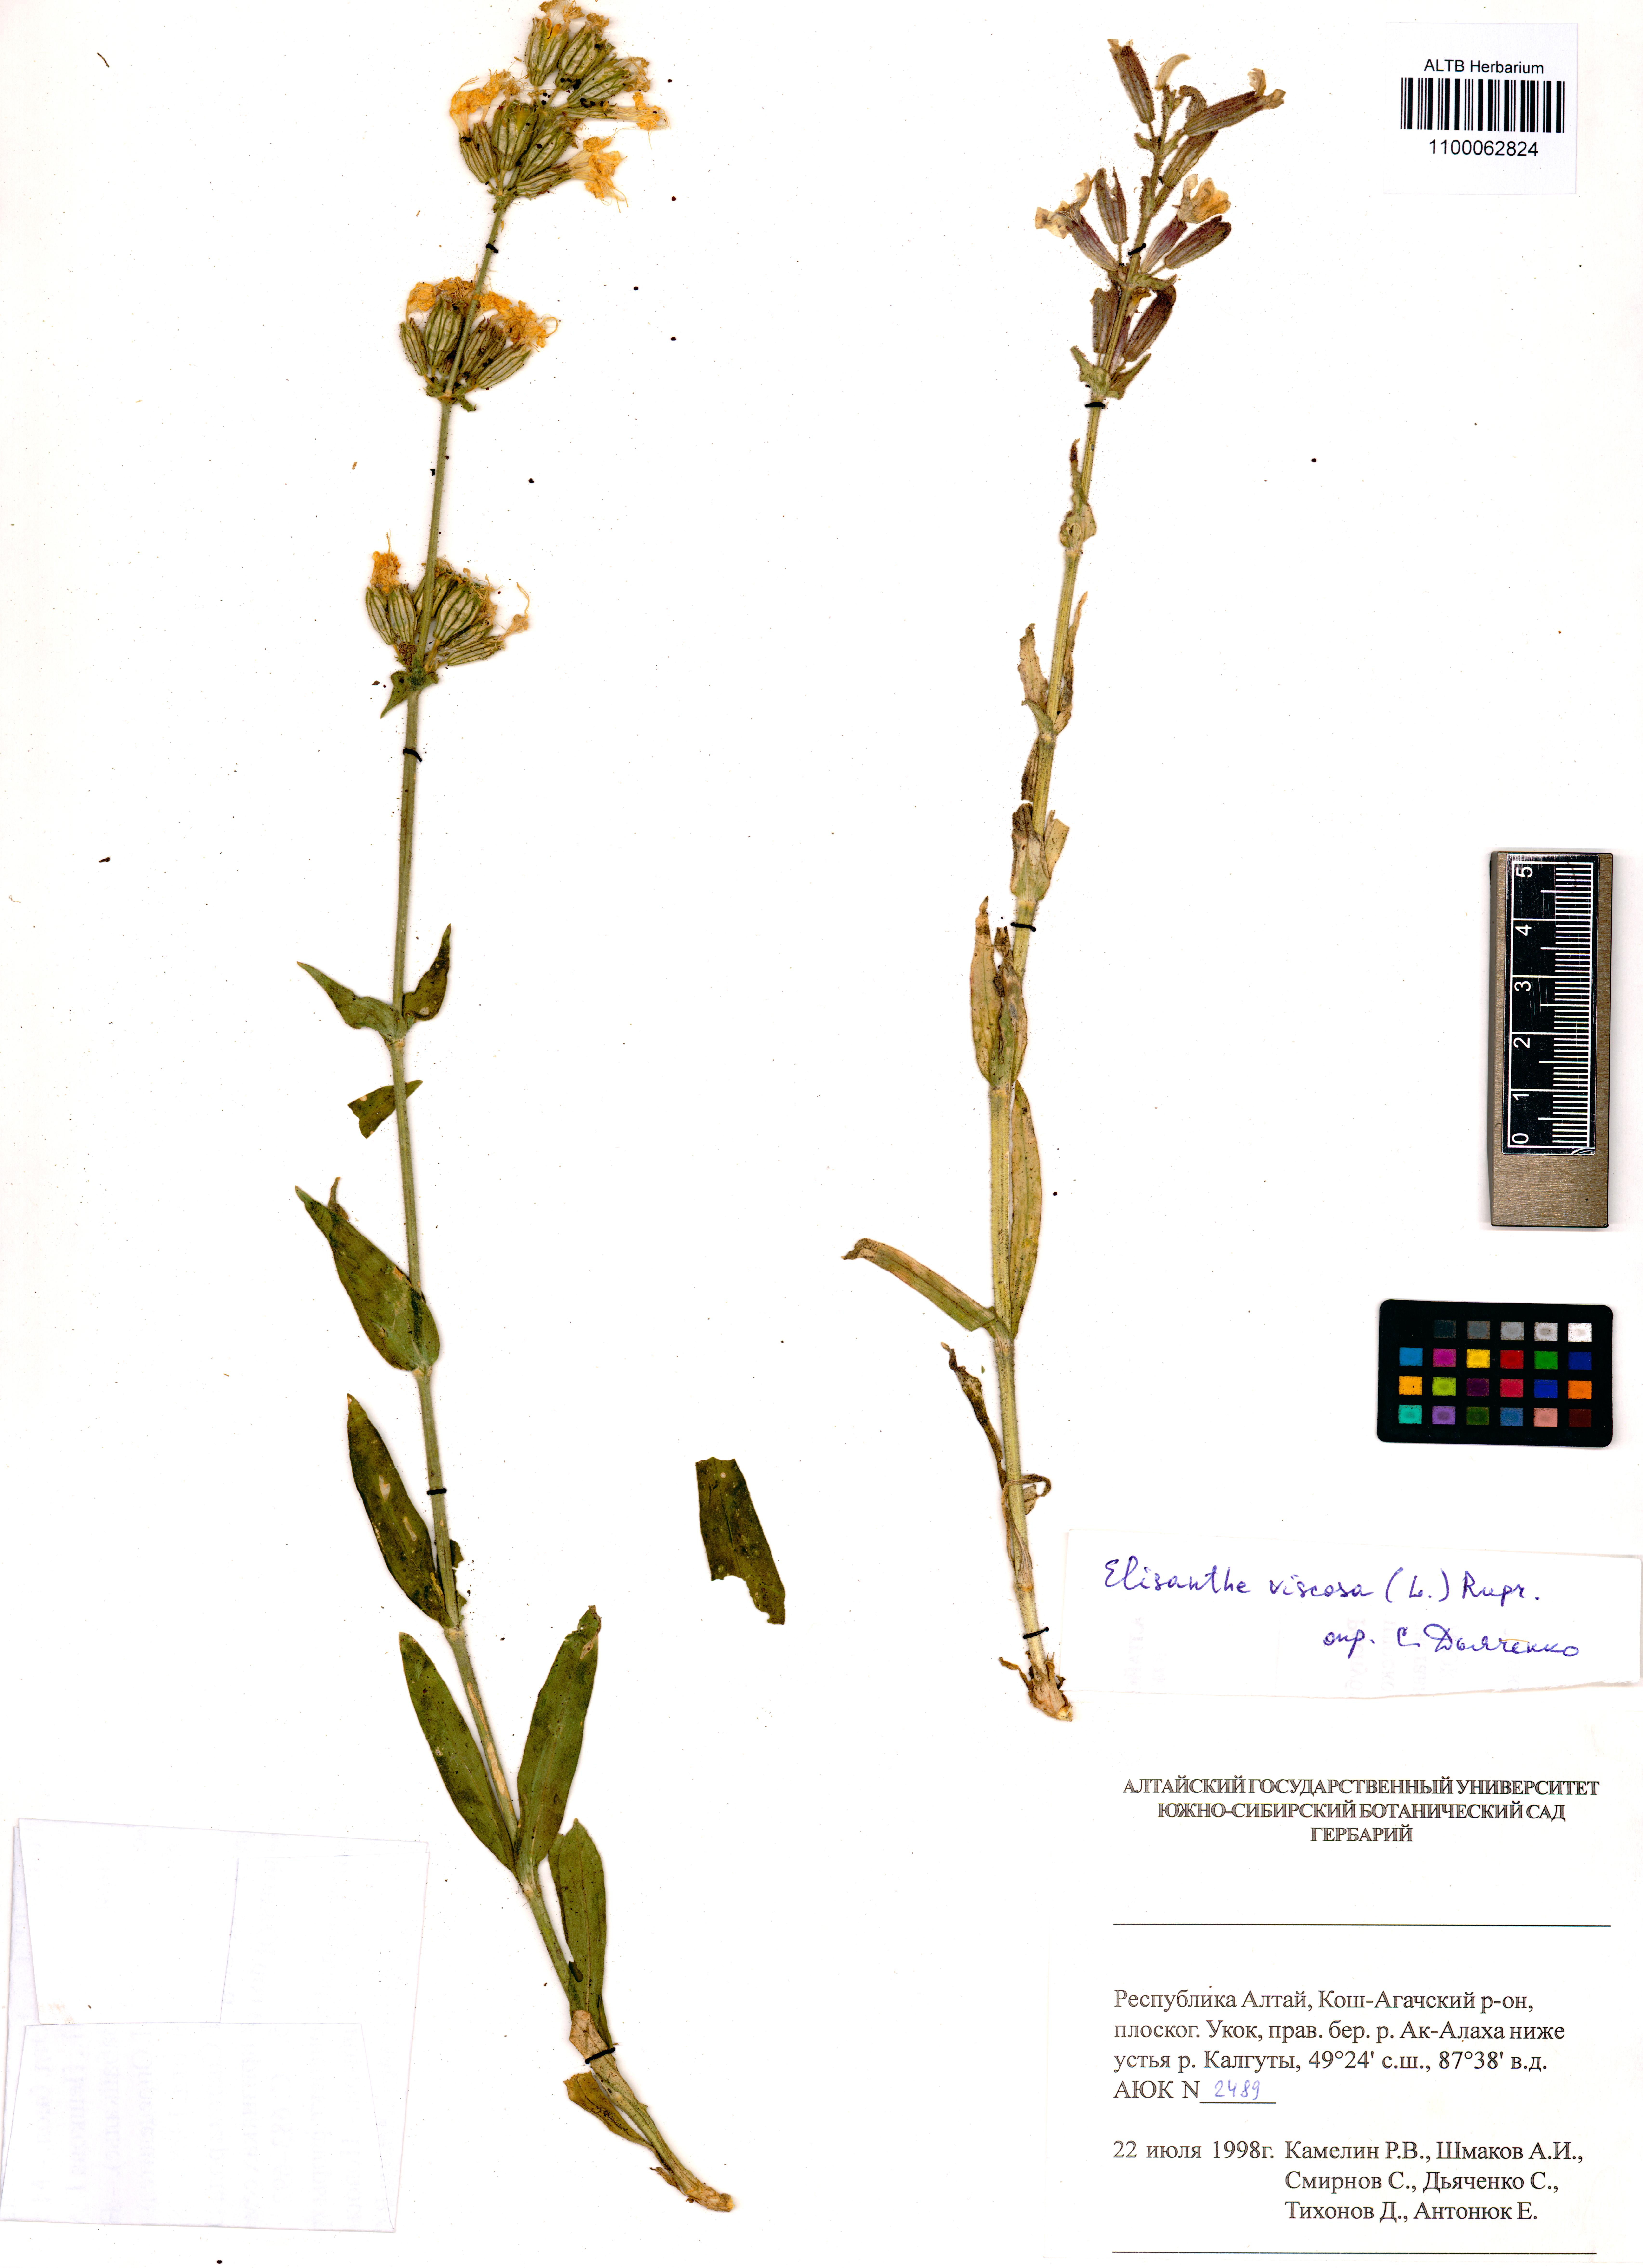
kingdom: Plantae
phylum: Tracheophyta
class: Magnoliopsida
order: Caryophyllales
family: Caryophyllaceae
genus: Silene
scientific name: Silene viscosa
